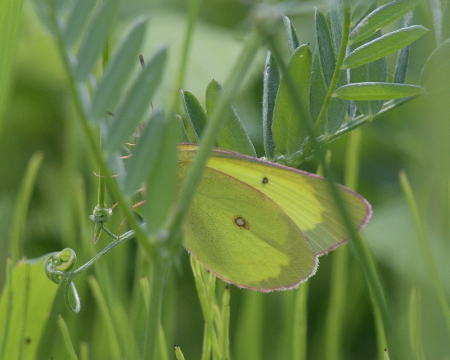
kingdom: Animalia
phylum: Arthropoda
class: Insecta
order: Lepidoptera
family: Pieridae
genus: Colias
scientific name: Colias interior
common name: Pink-edged Sulphur
